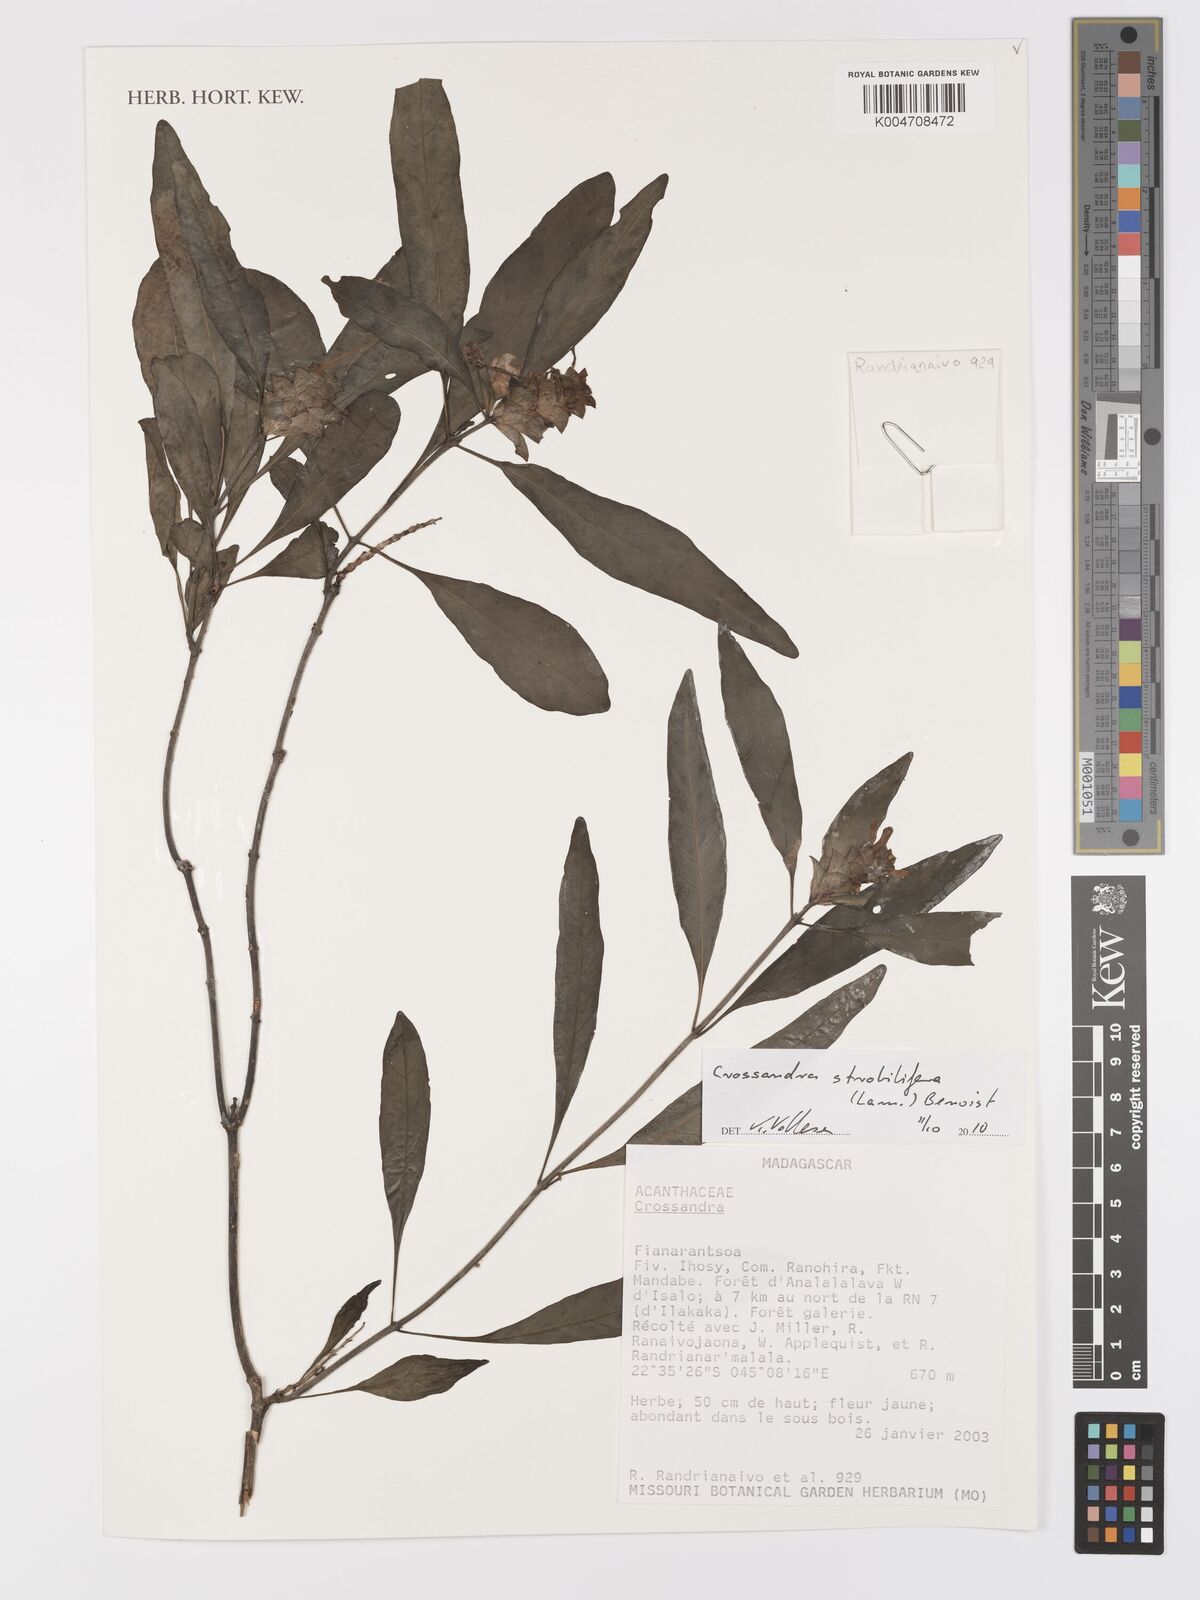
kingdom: Plantae
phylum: Tracheophyta
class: Magnoliopsida
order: Lamiales
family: Acanthaceae
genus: Crossandra
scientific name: Crossandra strobilifera
